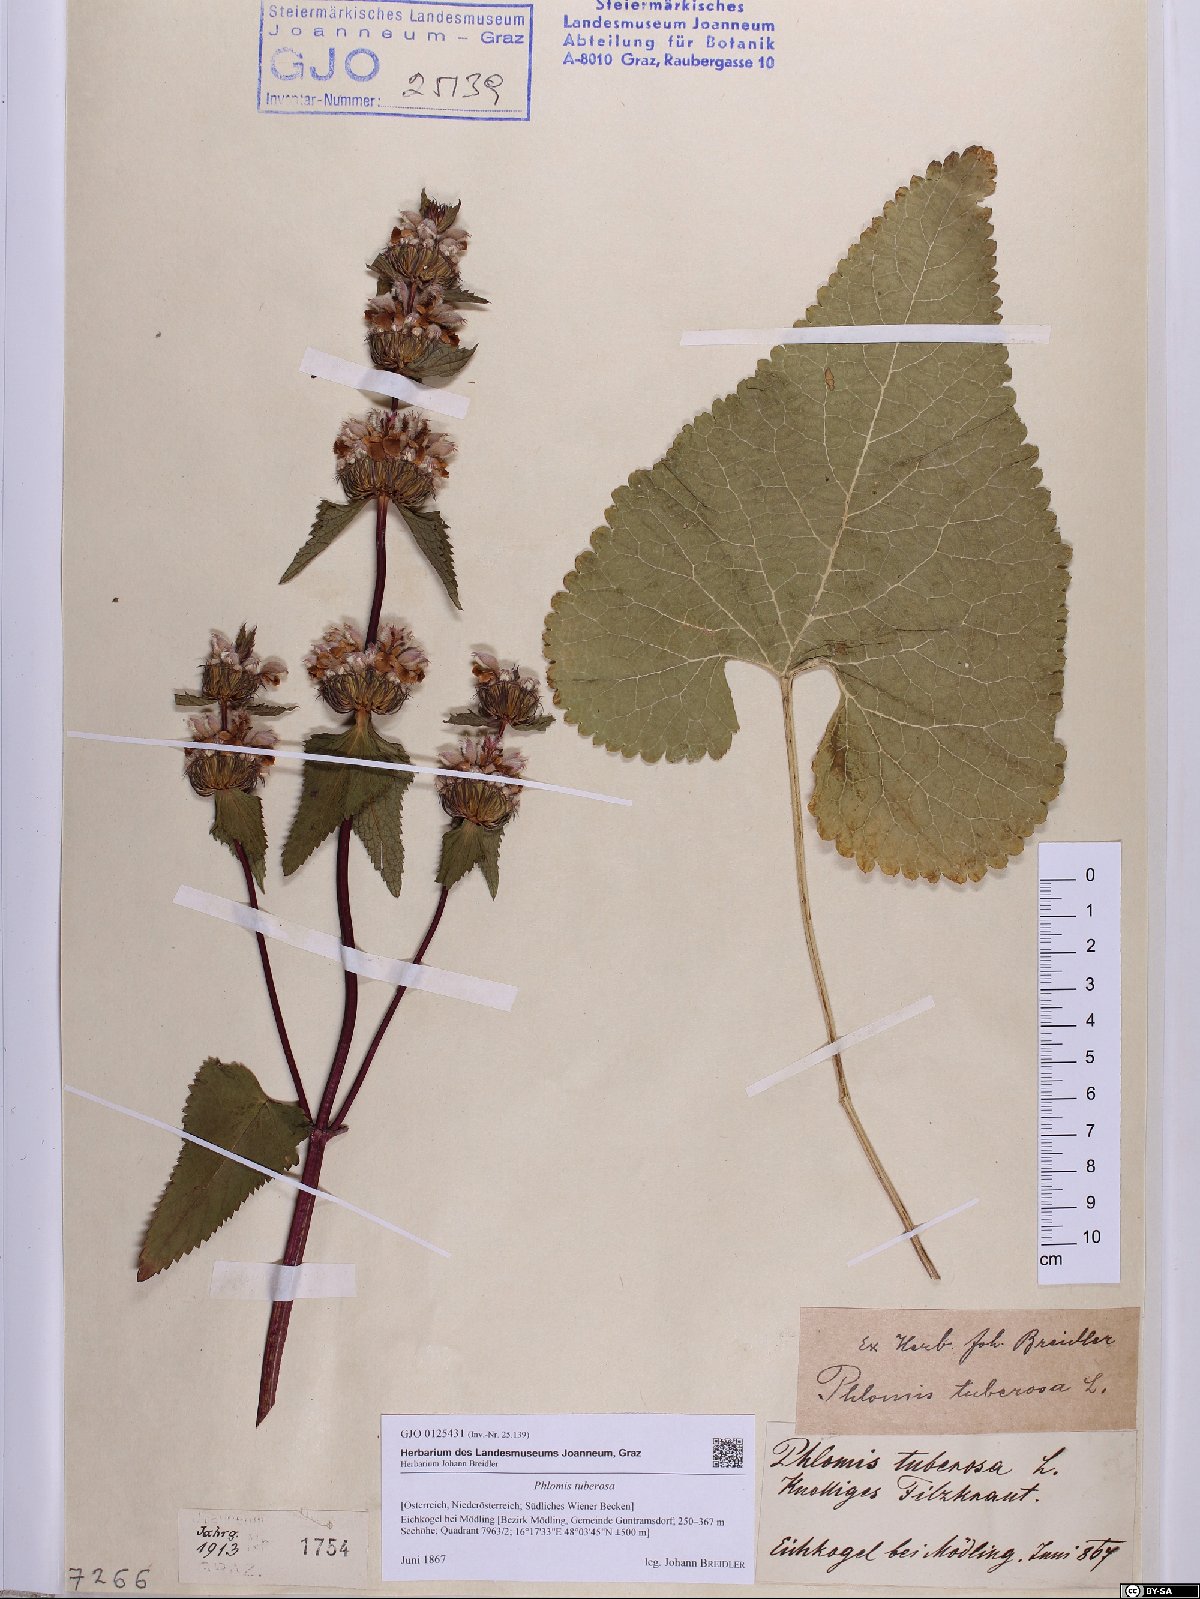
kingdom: Plantae
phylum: Tracheophyta
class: Magnoliopsida
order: Lamiales
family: Lamiaceae
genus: Phlomoides
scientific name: Phlomoides tuberosa
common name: Tuberous jerusalem sage
